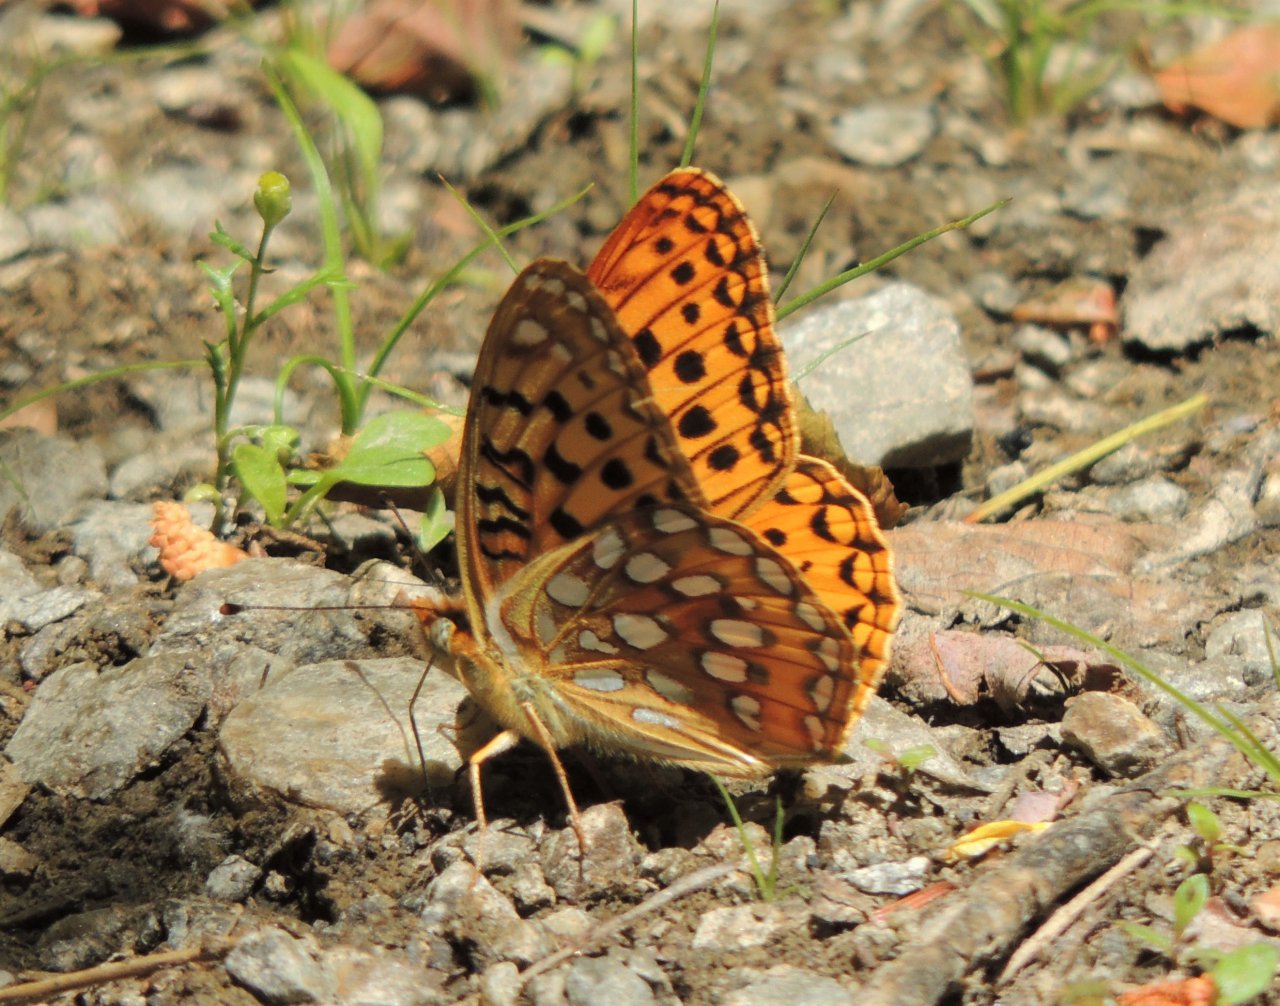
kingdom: Animalia
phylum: Arthropoda
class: Insecta
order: Lepidoptera
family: Nymphalidae
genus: Speyeria
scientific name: Speyeria zerene
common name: Zerene Fritillary
